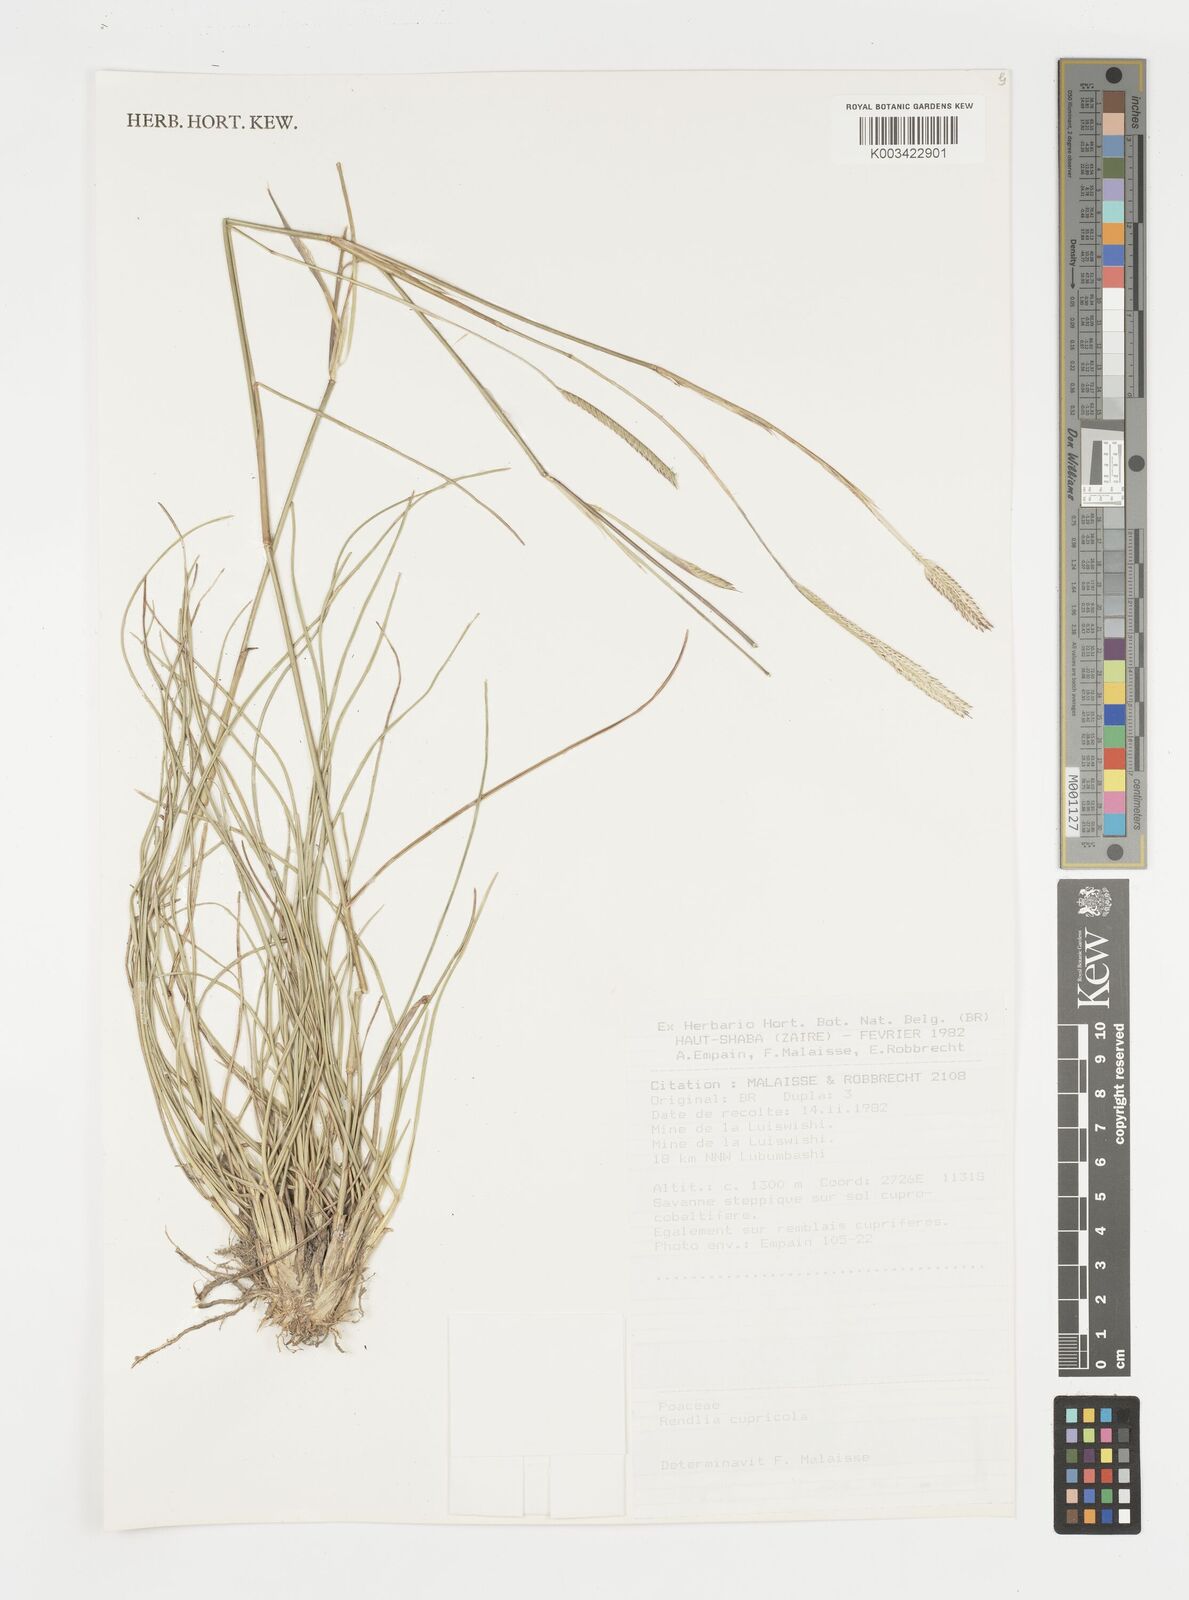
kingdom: Plantae
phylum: Tracheophyta
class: Liliopsida
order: Poales
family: Poaceae
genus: Microchloa
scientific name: Microchloa altera
